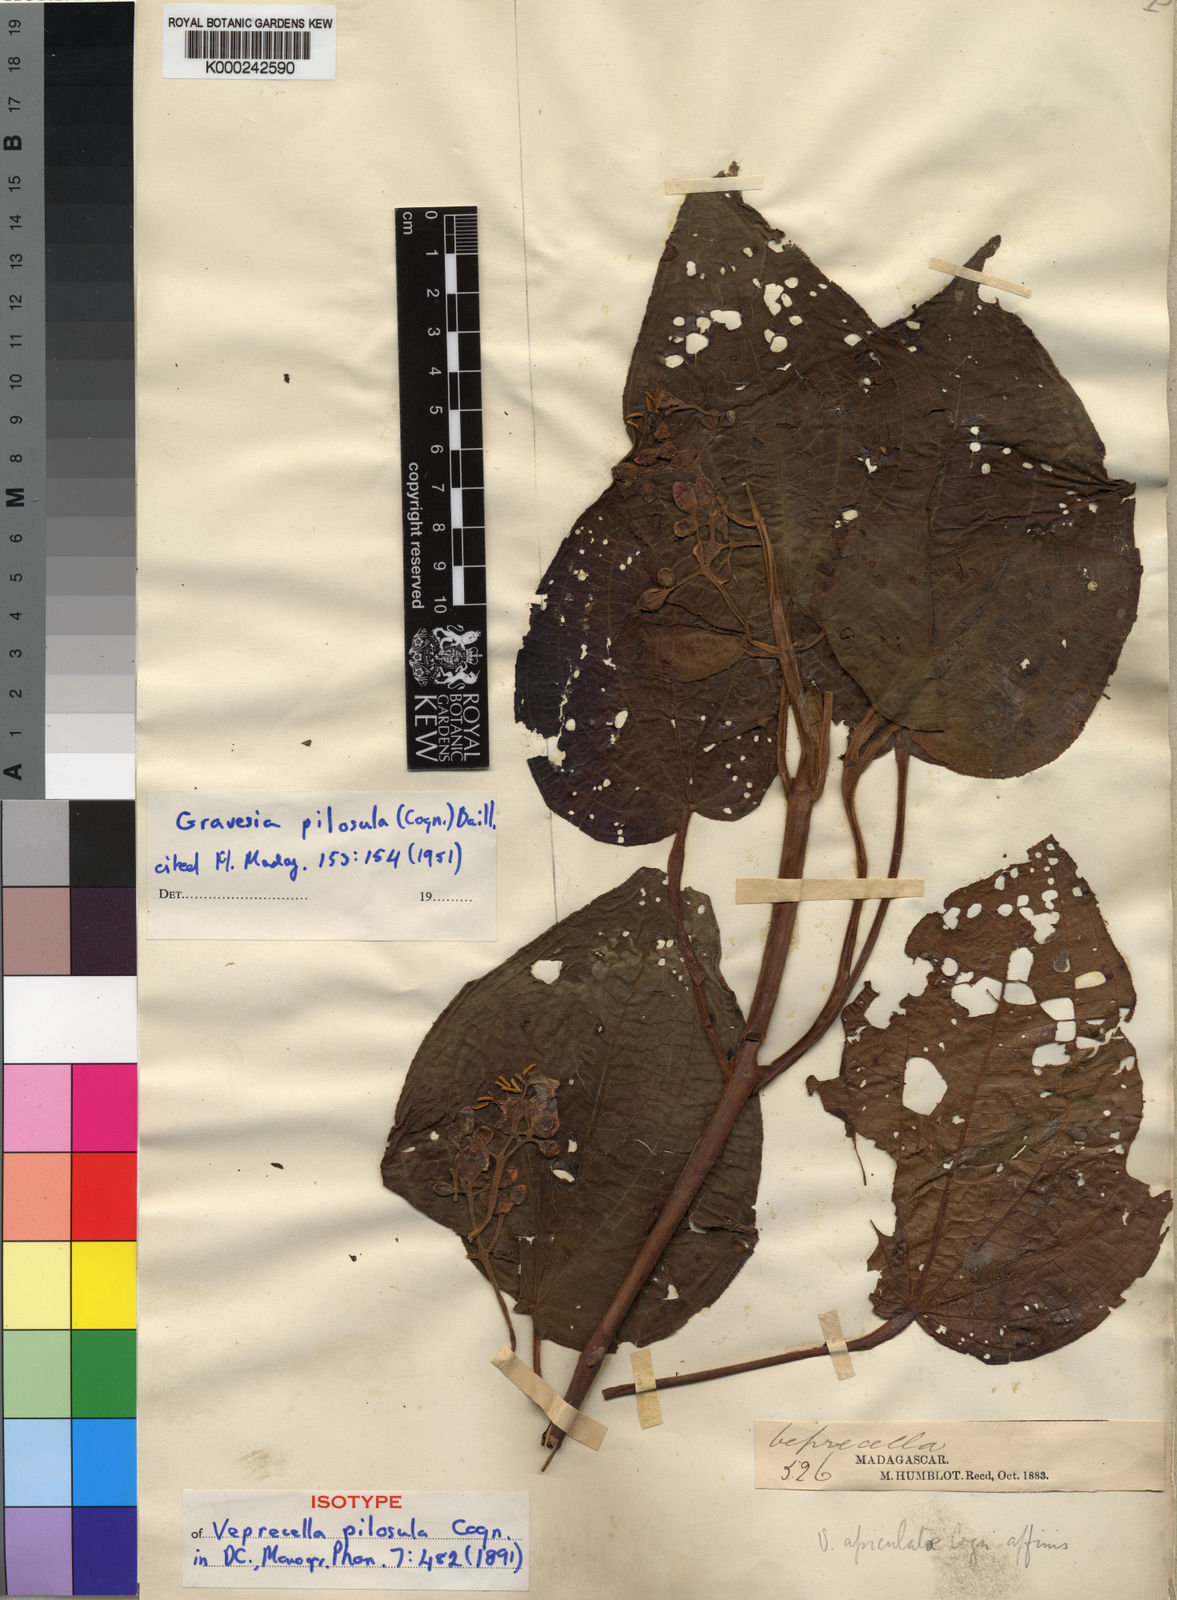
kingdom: Plantae
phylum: Tracheophyta
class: Magnoliopsida
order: Myrtales
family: Melastomataceae
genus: Gravesia
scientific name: Gravesia
